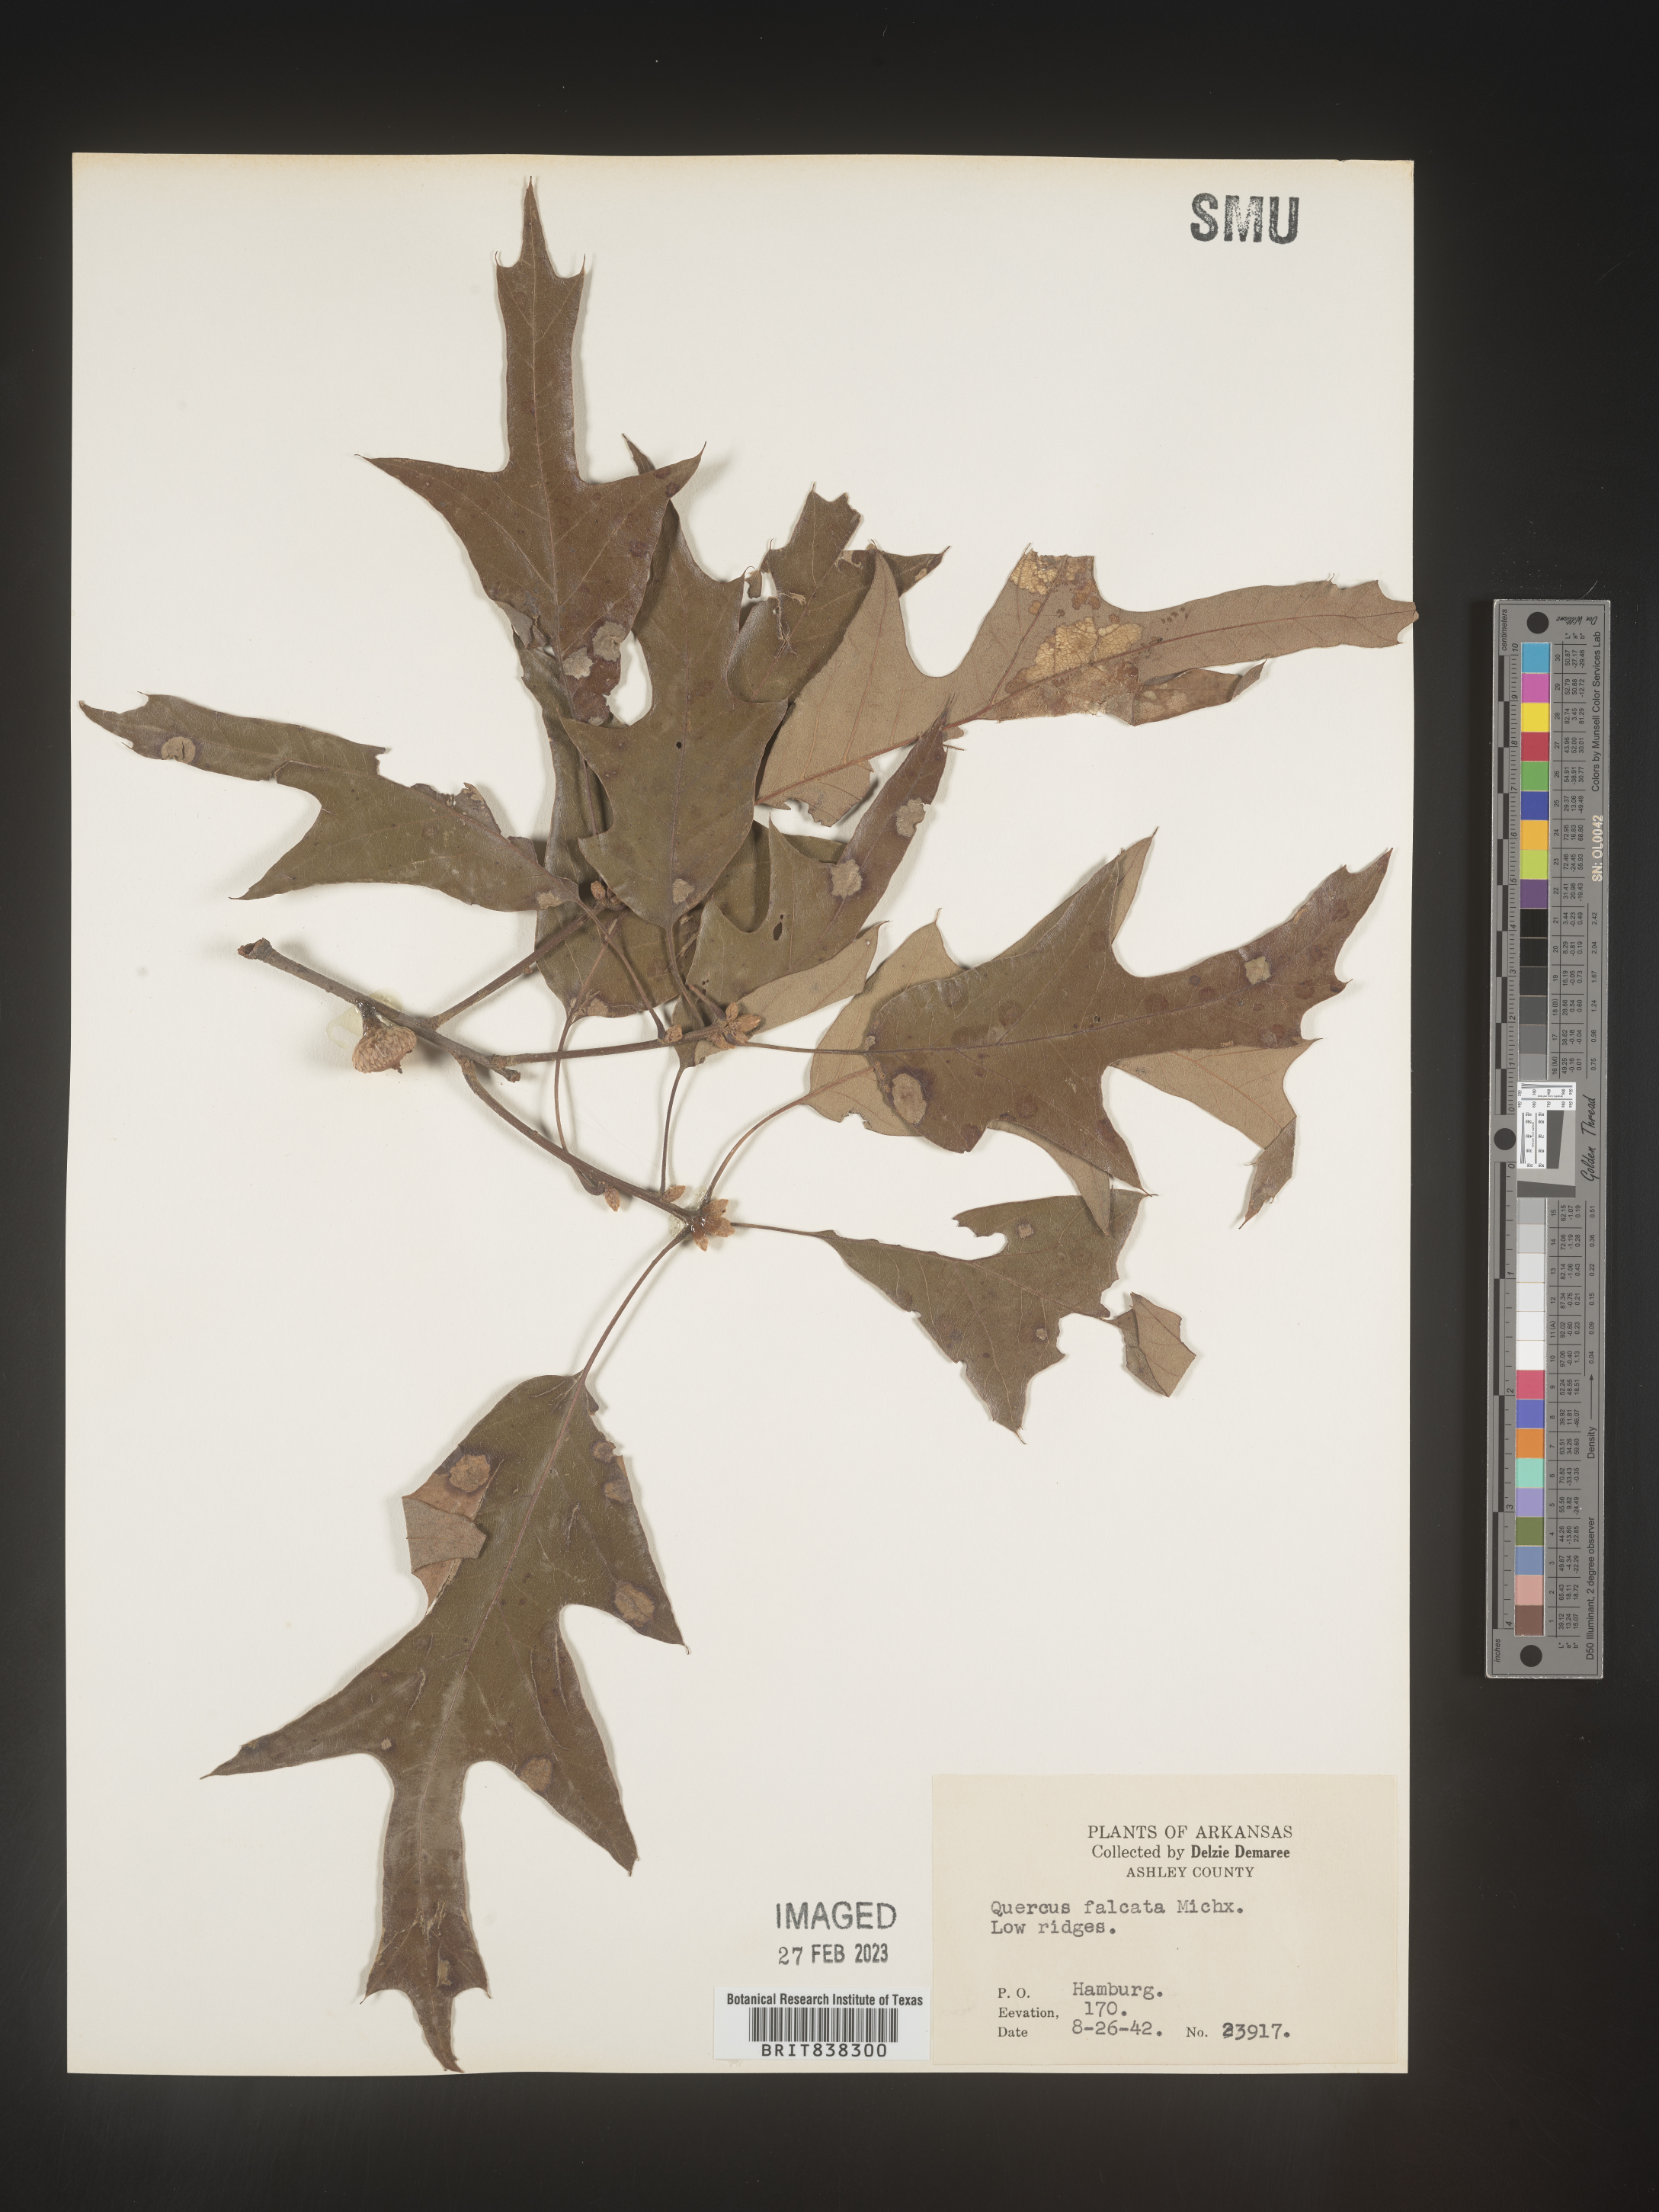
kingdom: Plantae
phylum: Tracheophyta
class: Magnoliopsida
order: Fagales
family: Fagaceae
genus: Quercus
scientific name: Quercus falcata
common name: Southern red oak
